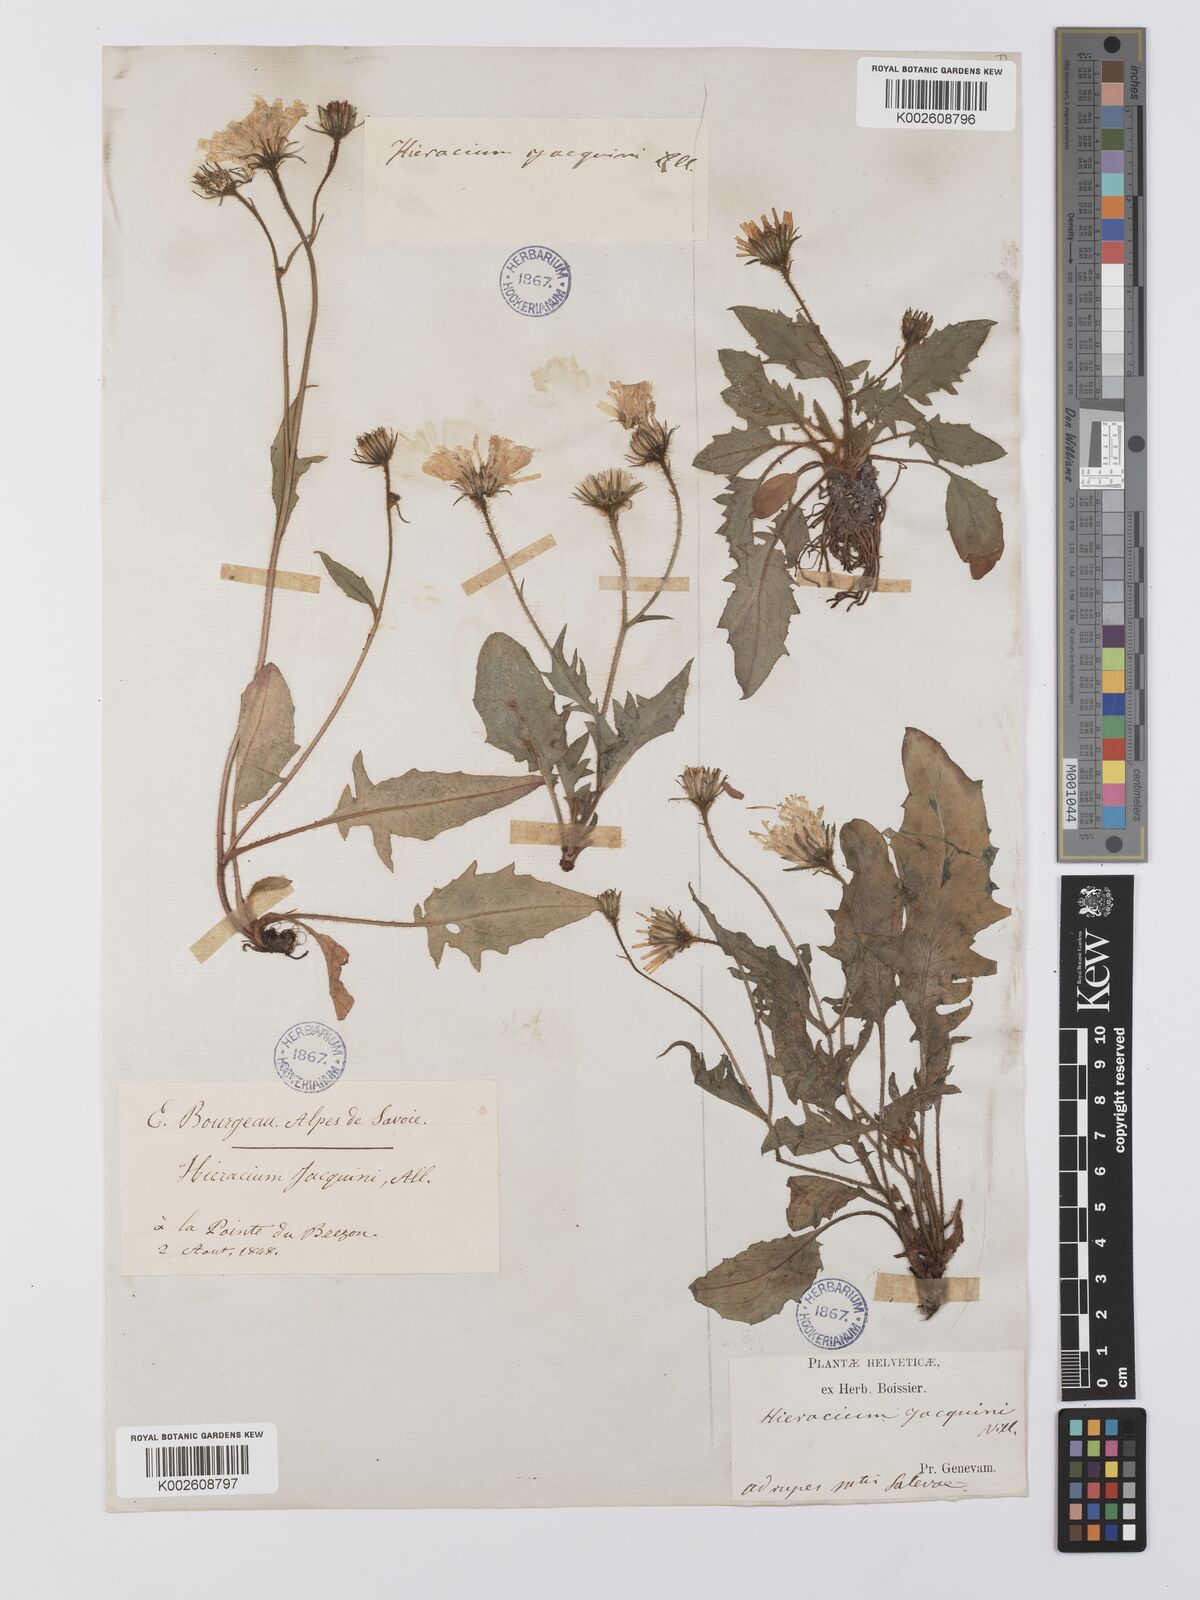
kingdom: Plantae
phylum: Tracheophyta
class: Magnoliopsida
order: Asterales
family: Asteraceae
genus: Hieracium
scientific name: Hieracium humile
